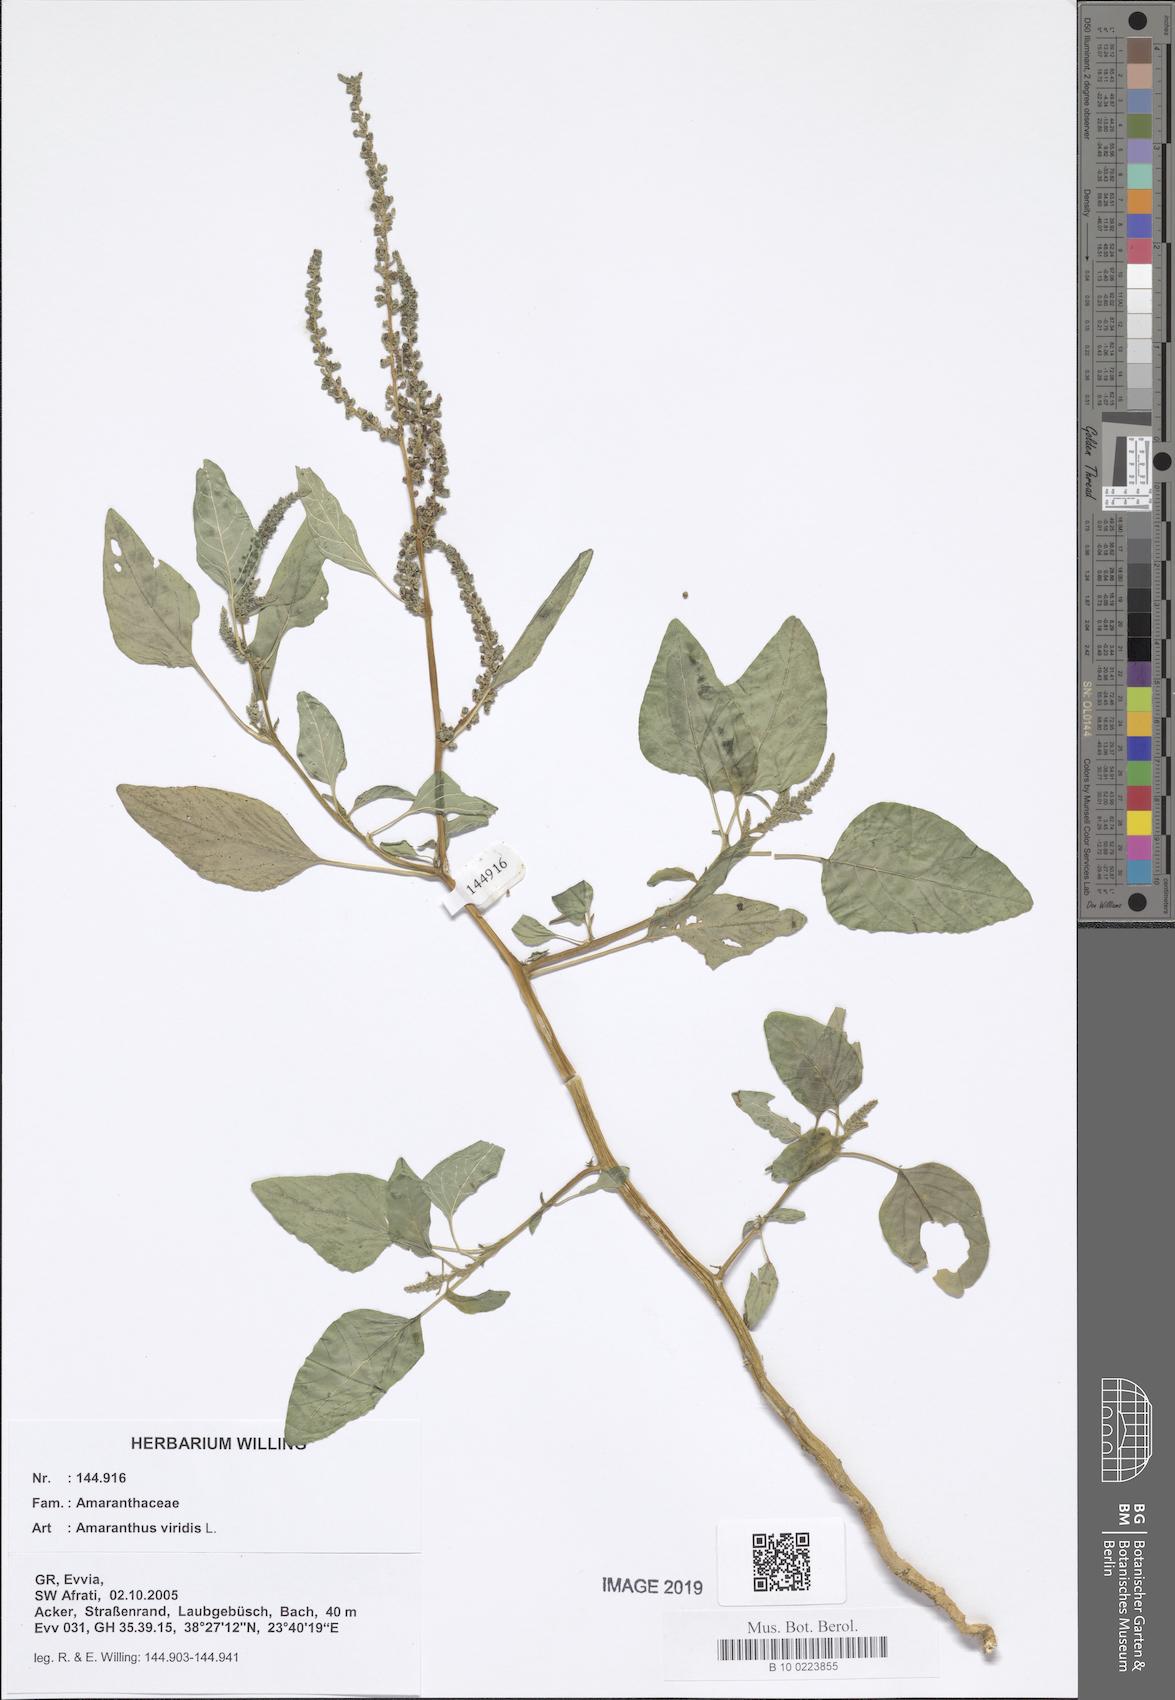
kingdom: Plantae
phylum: Tracheophyta
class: Magnoliopsida
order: Caryophyllales
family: Amaranthaceae
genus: Amaranthus
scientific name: Amaranthus viridis
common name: Slender amaranth
